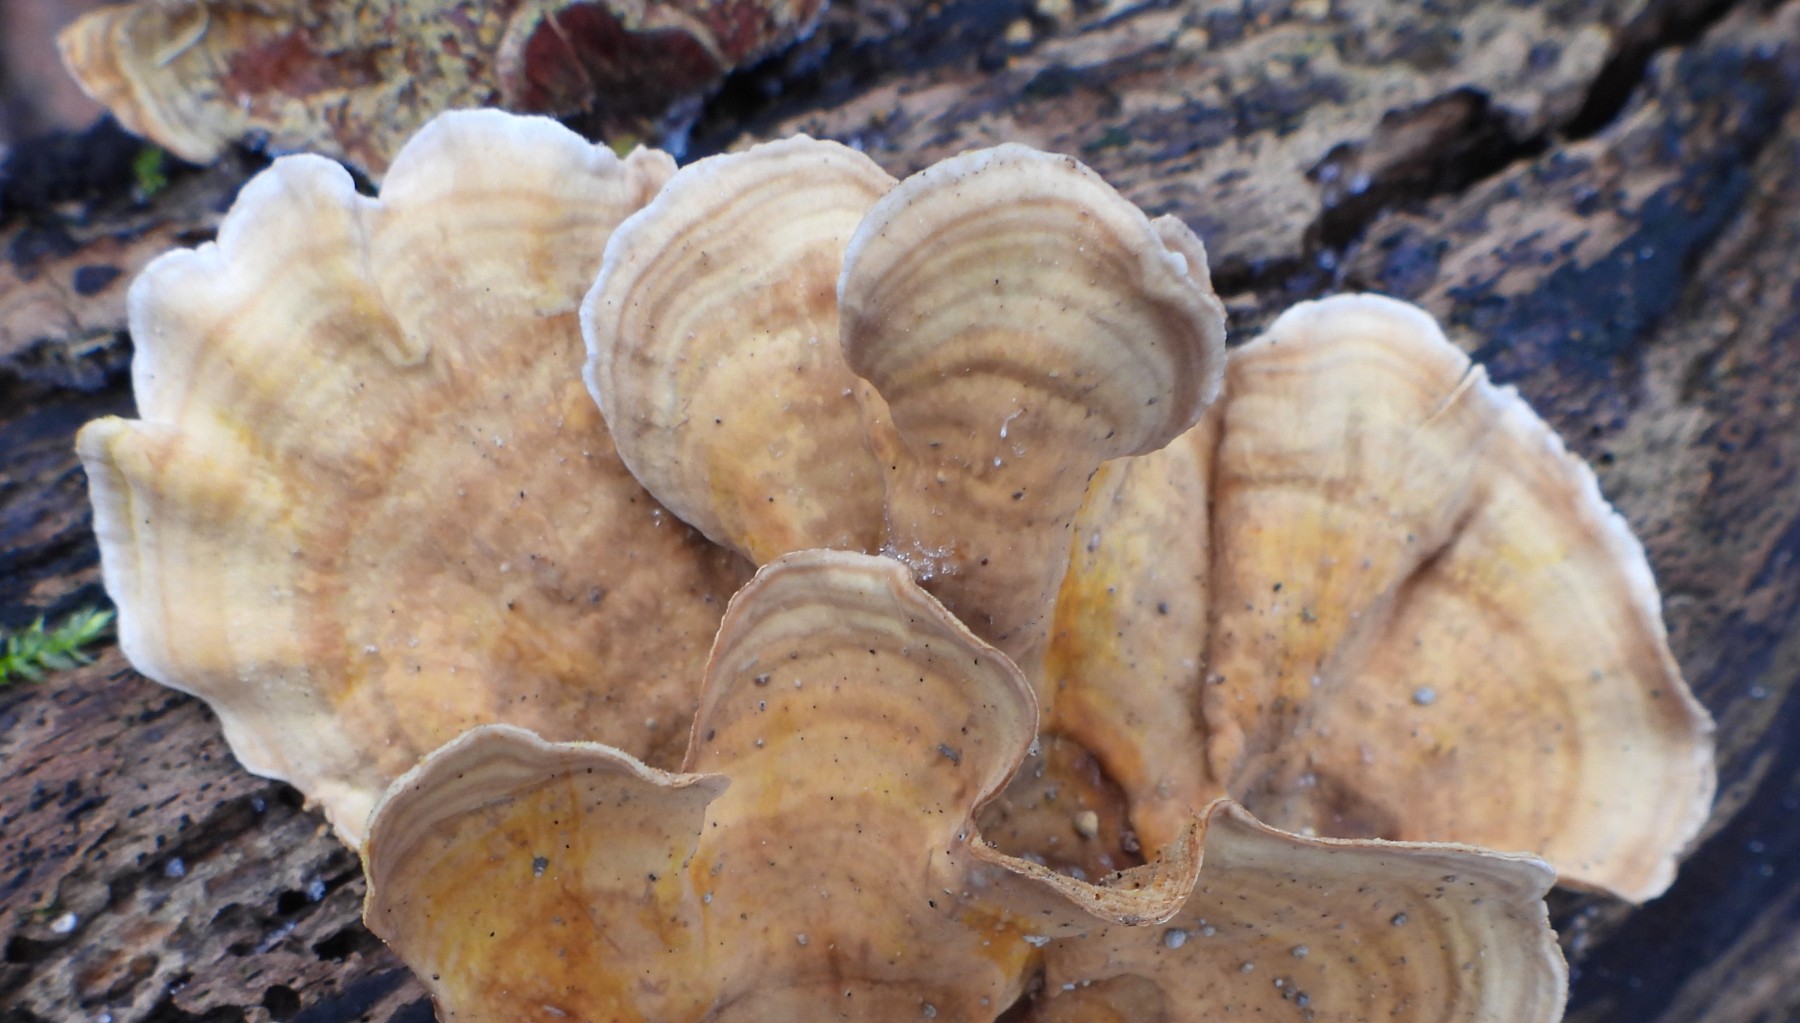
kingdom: Fungi
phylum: Basidiomycota
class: Agaricomycetes
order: Russulales
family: Stereaceae
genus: Stereum
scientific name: Stereum subtomentosum
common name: smuk lædersvamp
